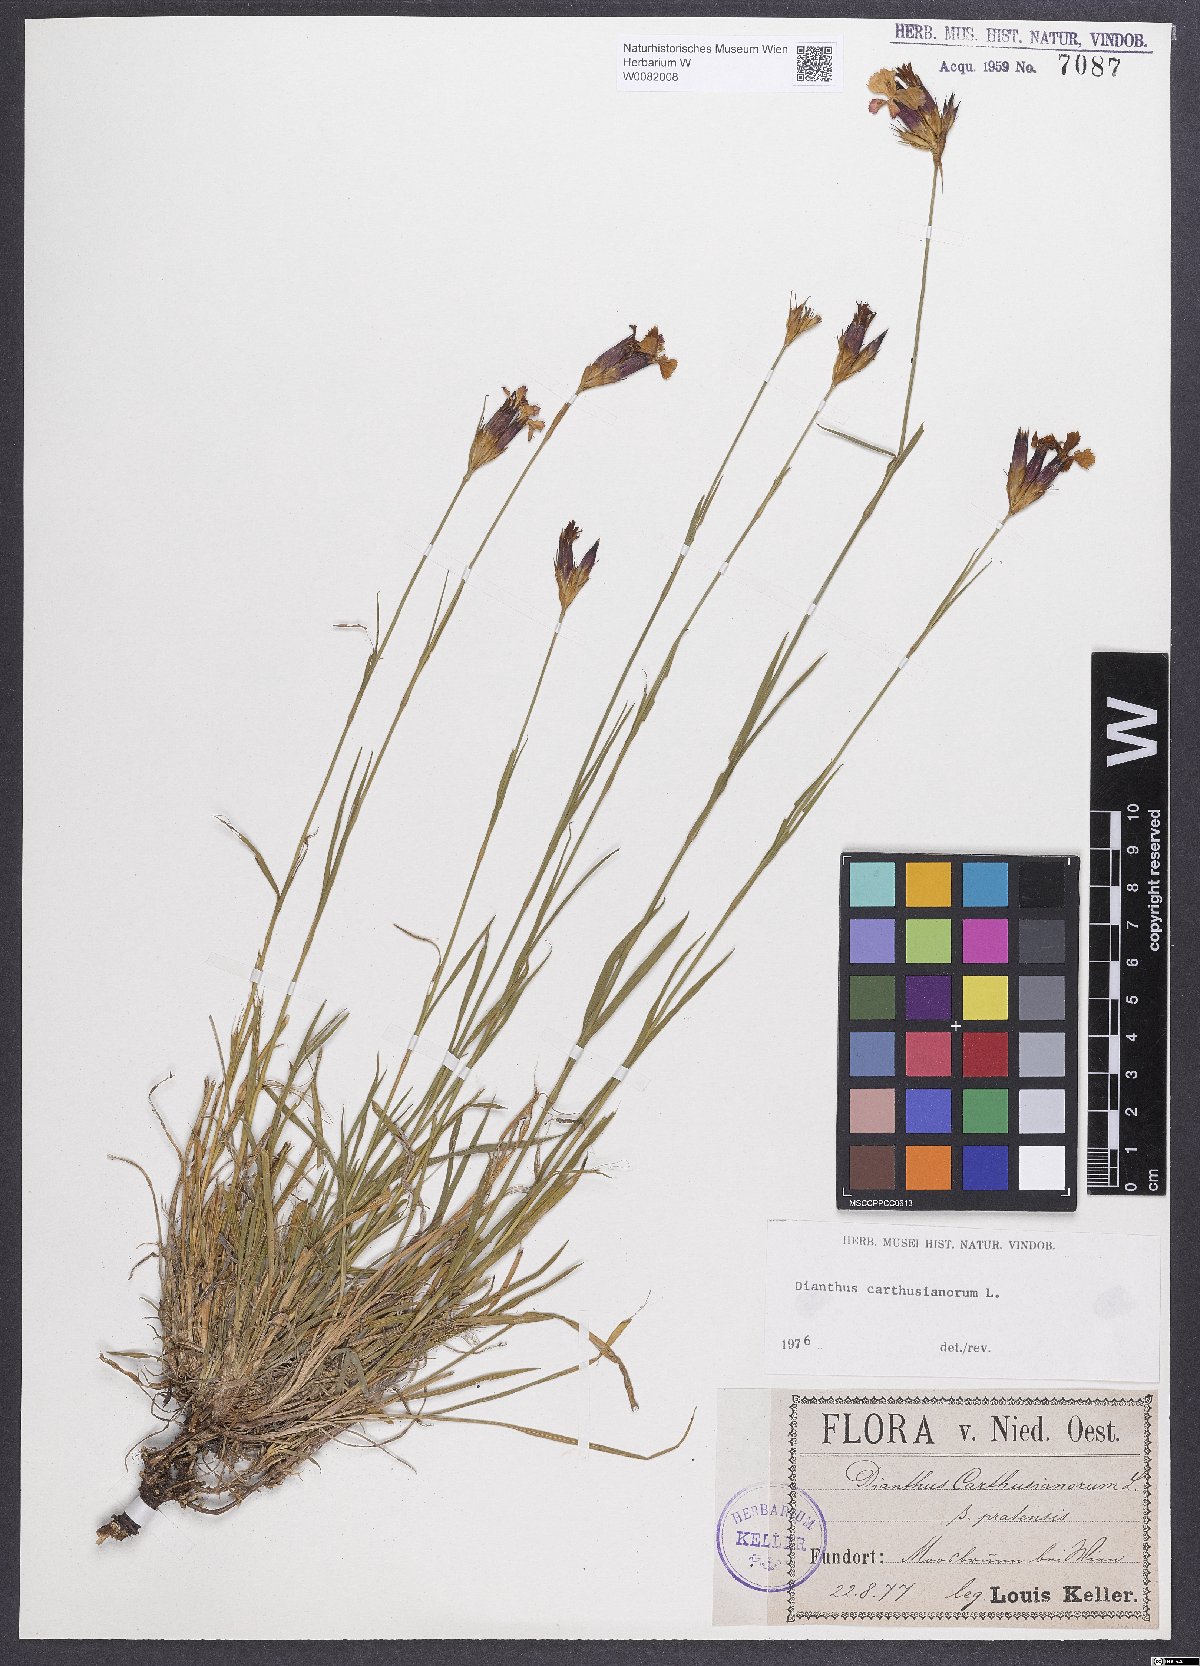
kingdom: Plantae
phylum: Tracheophyta
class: Magnoliopsida
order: Caryophyllales
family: Caryophyllaceae
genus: Dianthus
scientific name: Dianthus carthusianorum
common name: Carthusian pink
